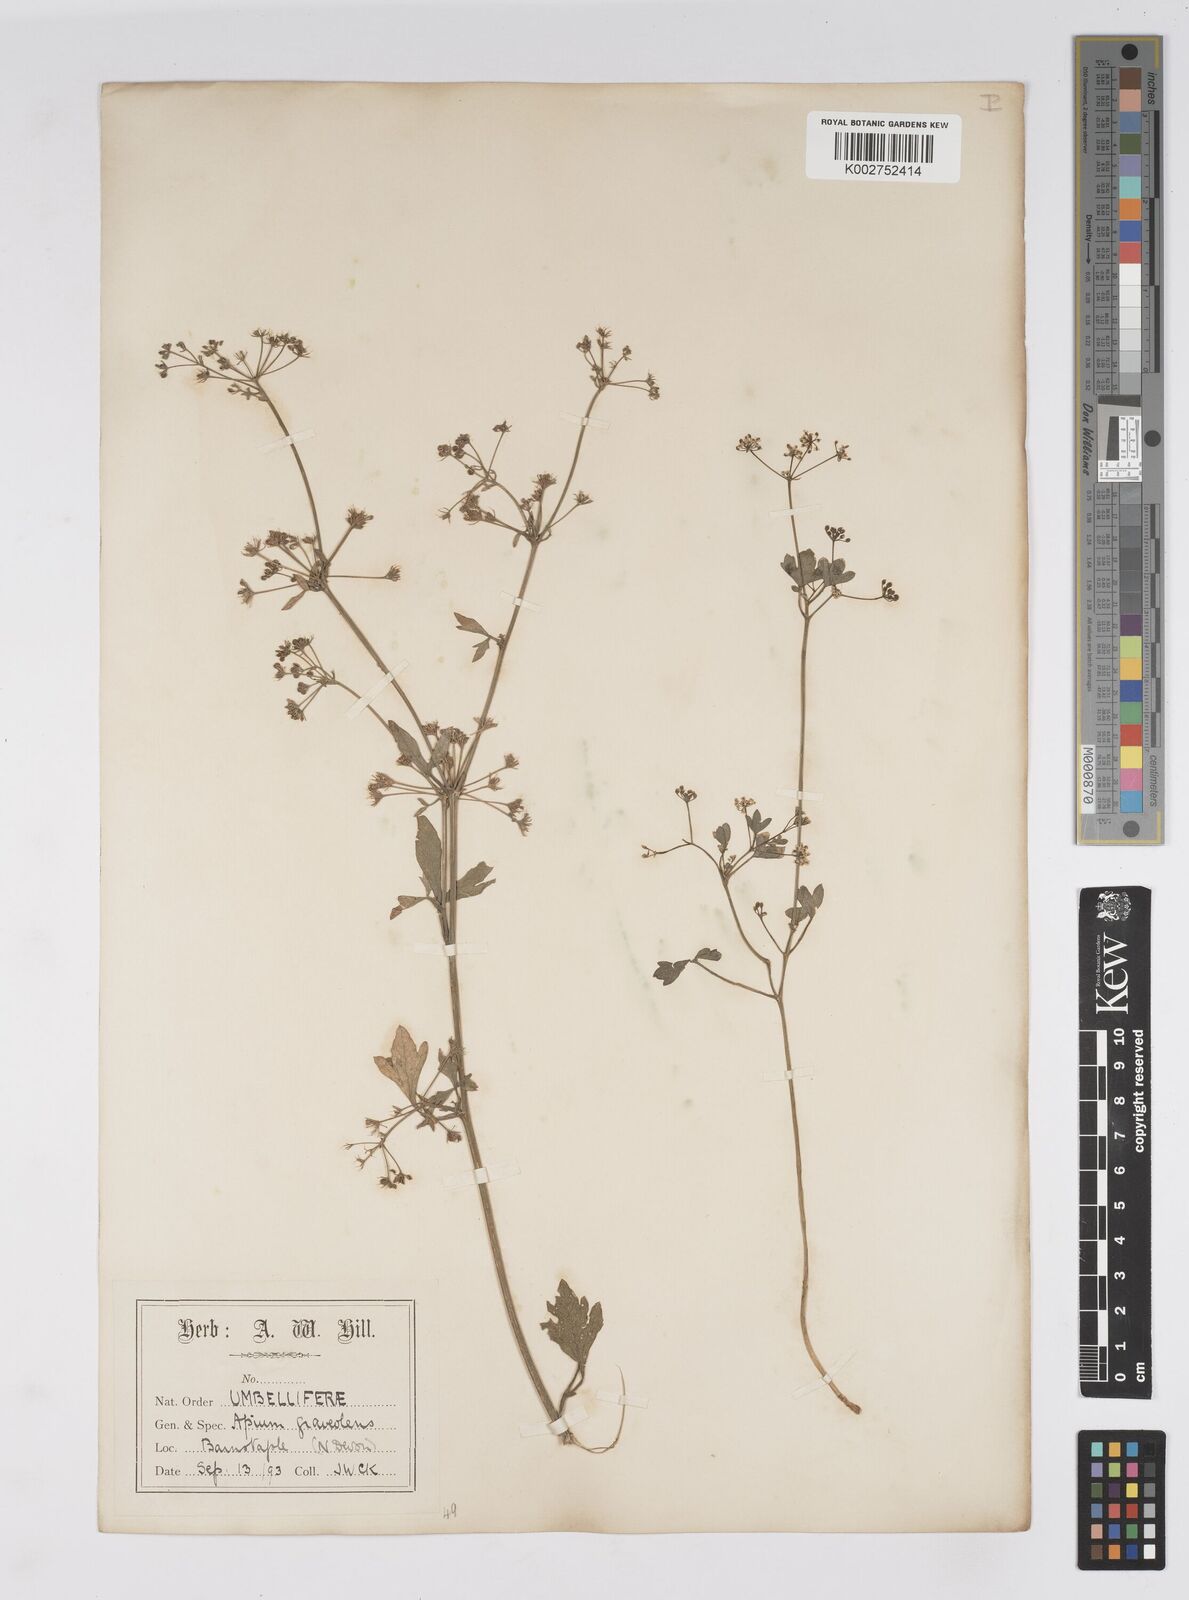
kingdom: Plantae
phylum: Tracheophyta
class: Magnoliopsida
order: Apiales
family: Apiaceae
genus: Apium
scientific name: Apium graveolens
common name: Wild celery
